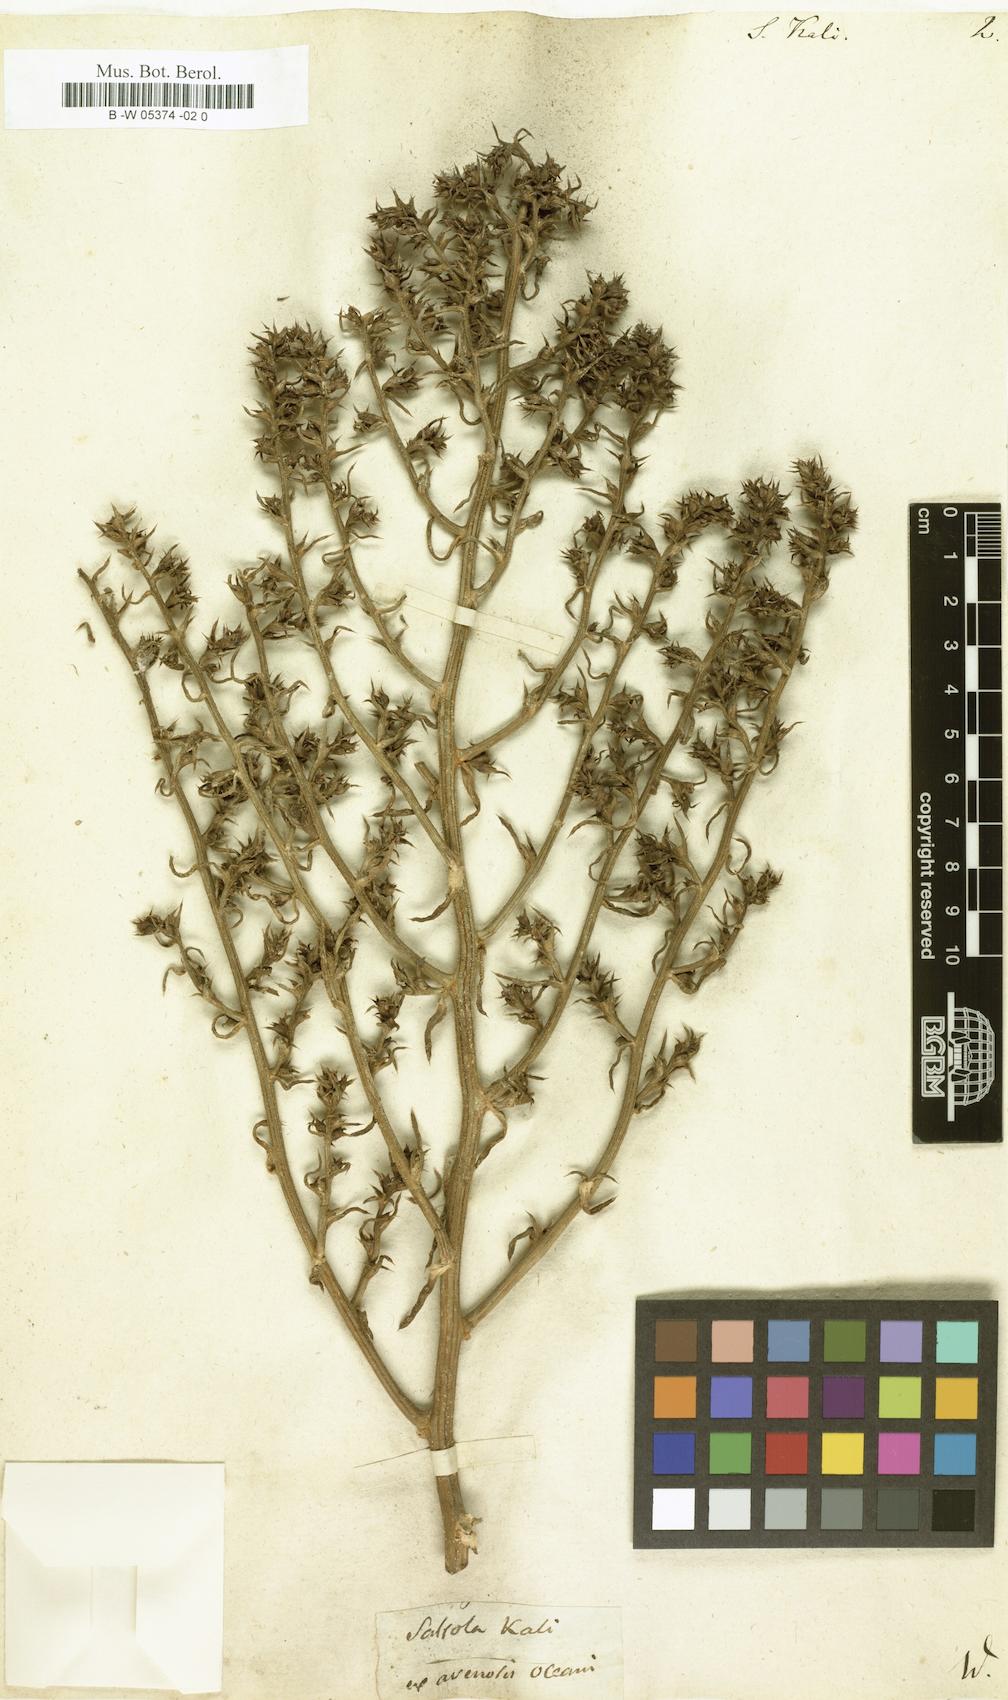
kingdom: Plantae
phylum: Tracheophyta
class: Magnoliopsida
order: Caryophyllales
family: Amaranthaceae
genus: Salsola
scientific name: Salsola kali
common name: Saltwort
